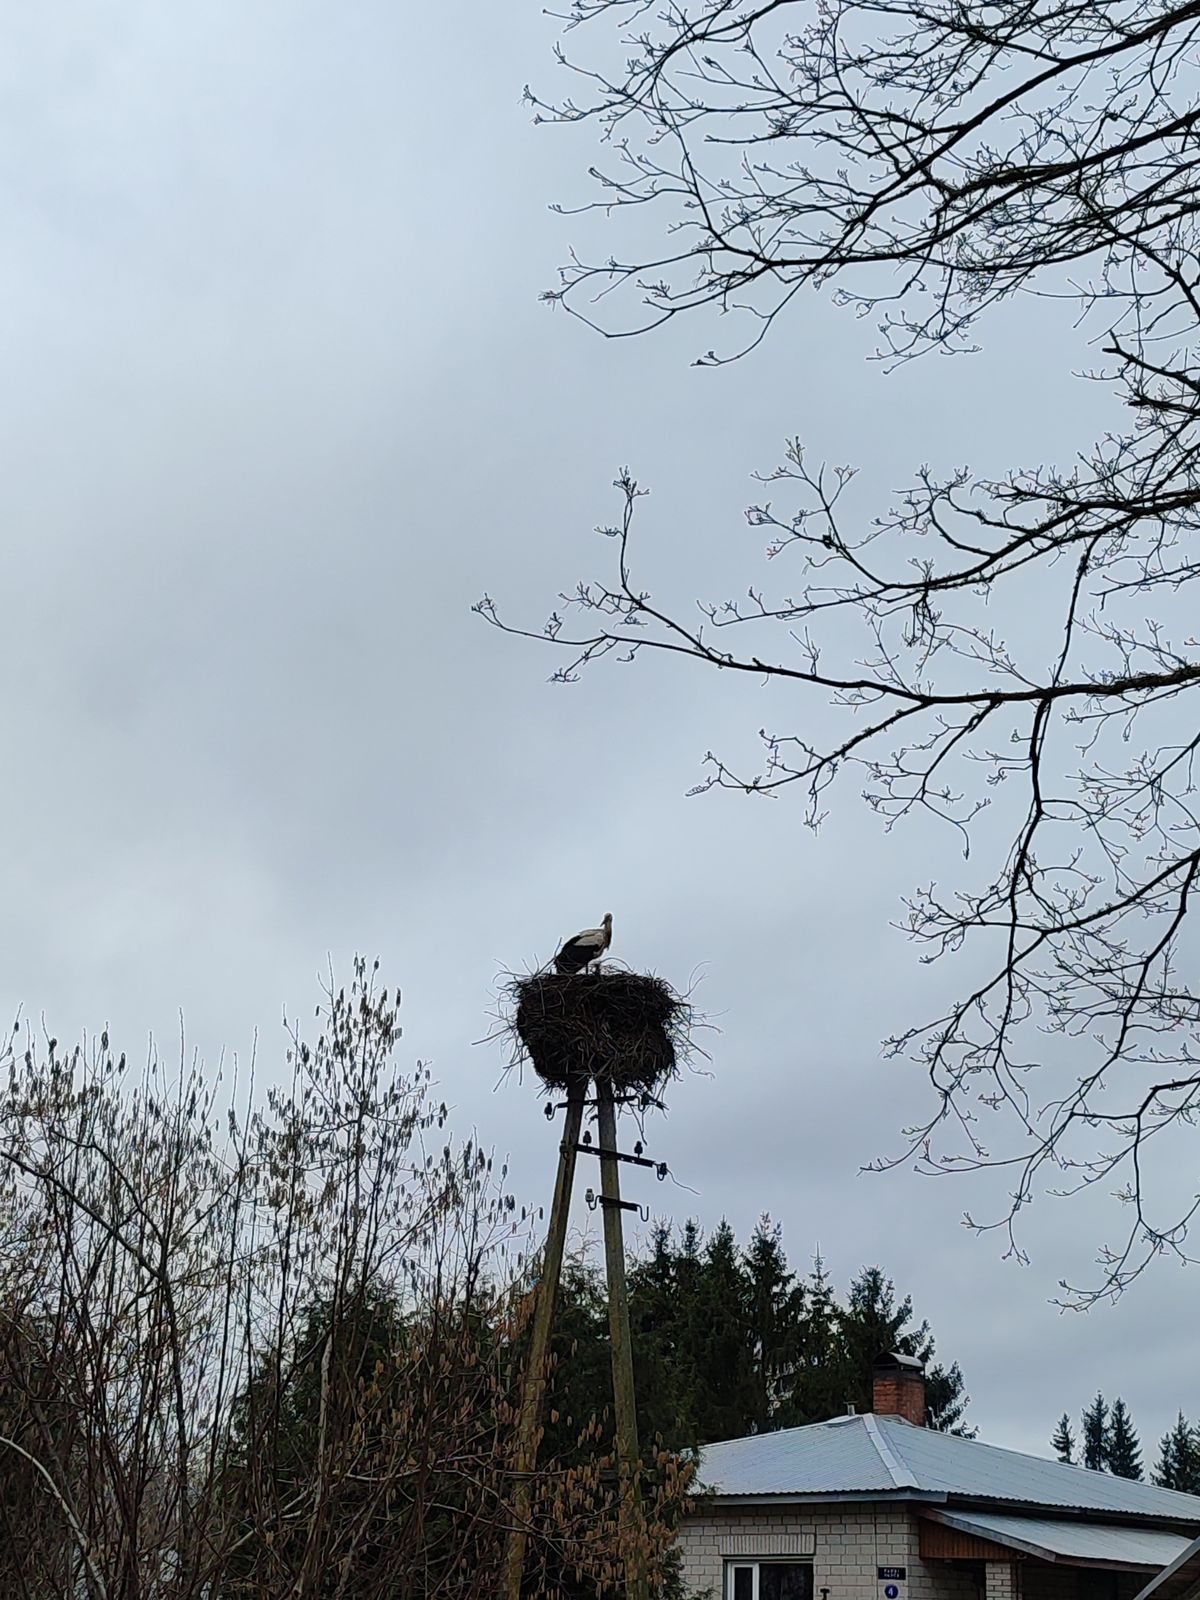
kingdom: Animalia
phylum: Chordata
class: Aves
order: Ciconiiformes
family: Ciconiidae
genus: Ciconia
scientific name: Ciconia ciconia
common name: White stork
